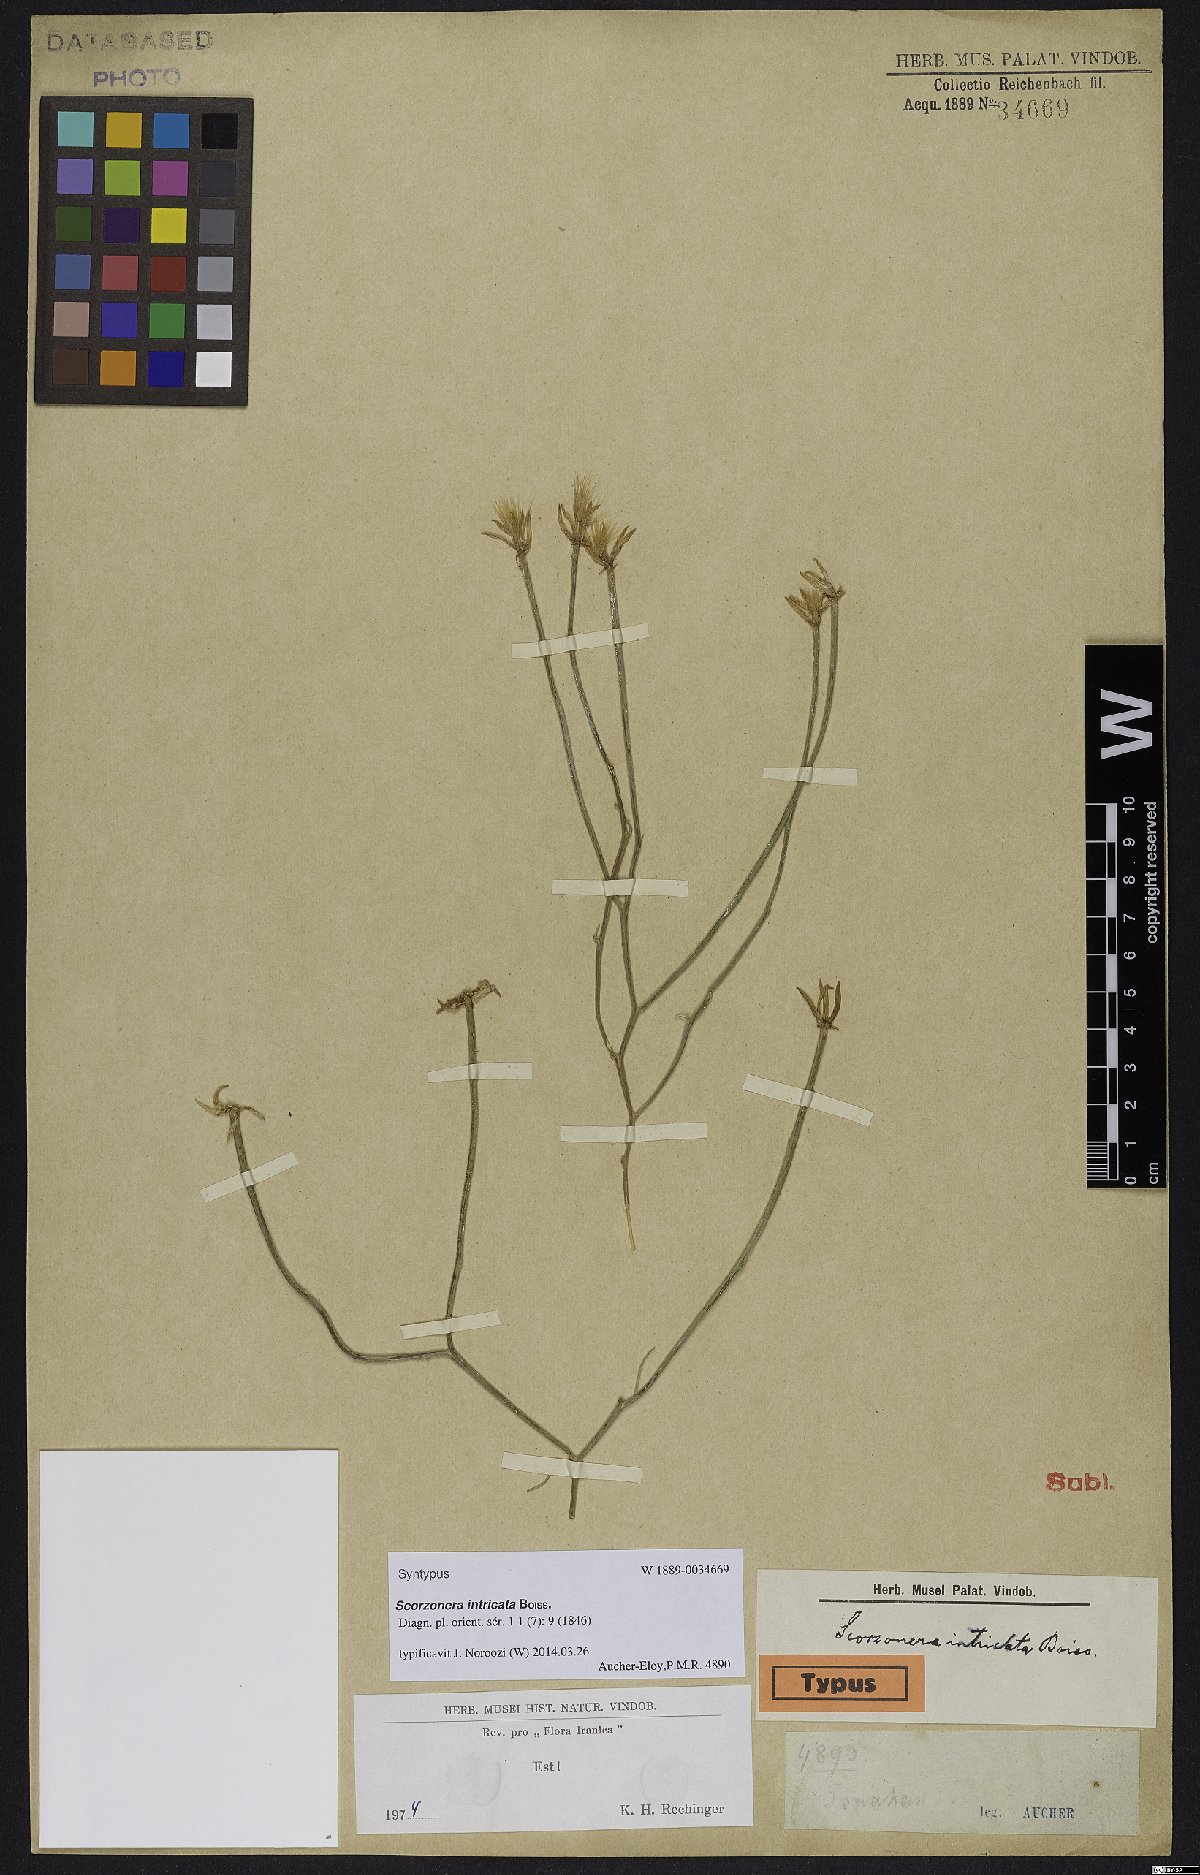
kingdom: Plantae
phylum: Tracheophyta
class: Magnoliopsida
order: Asterales
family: Asteraceae
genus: Ramaliella
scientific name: Ramaliella intricata
